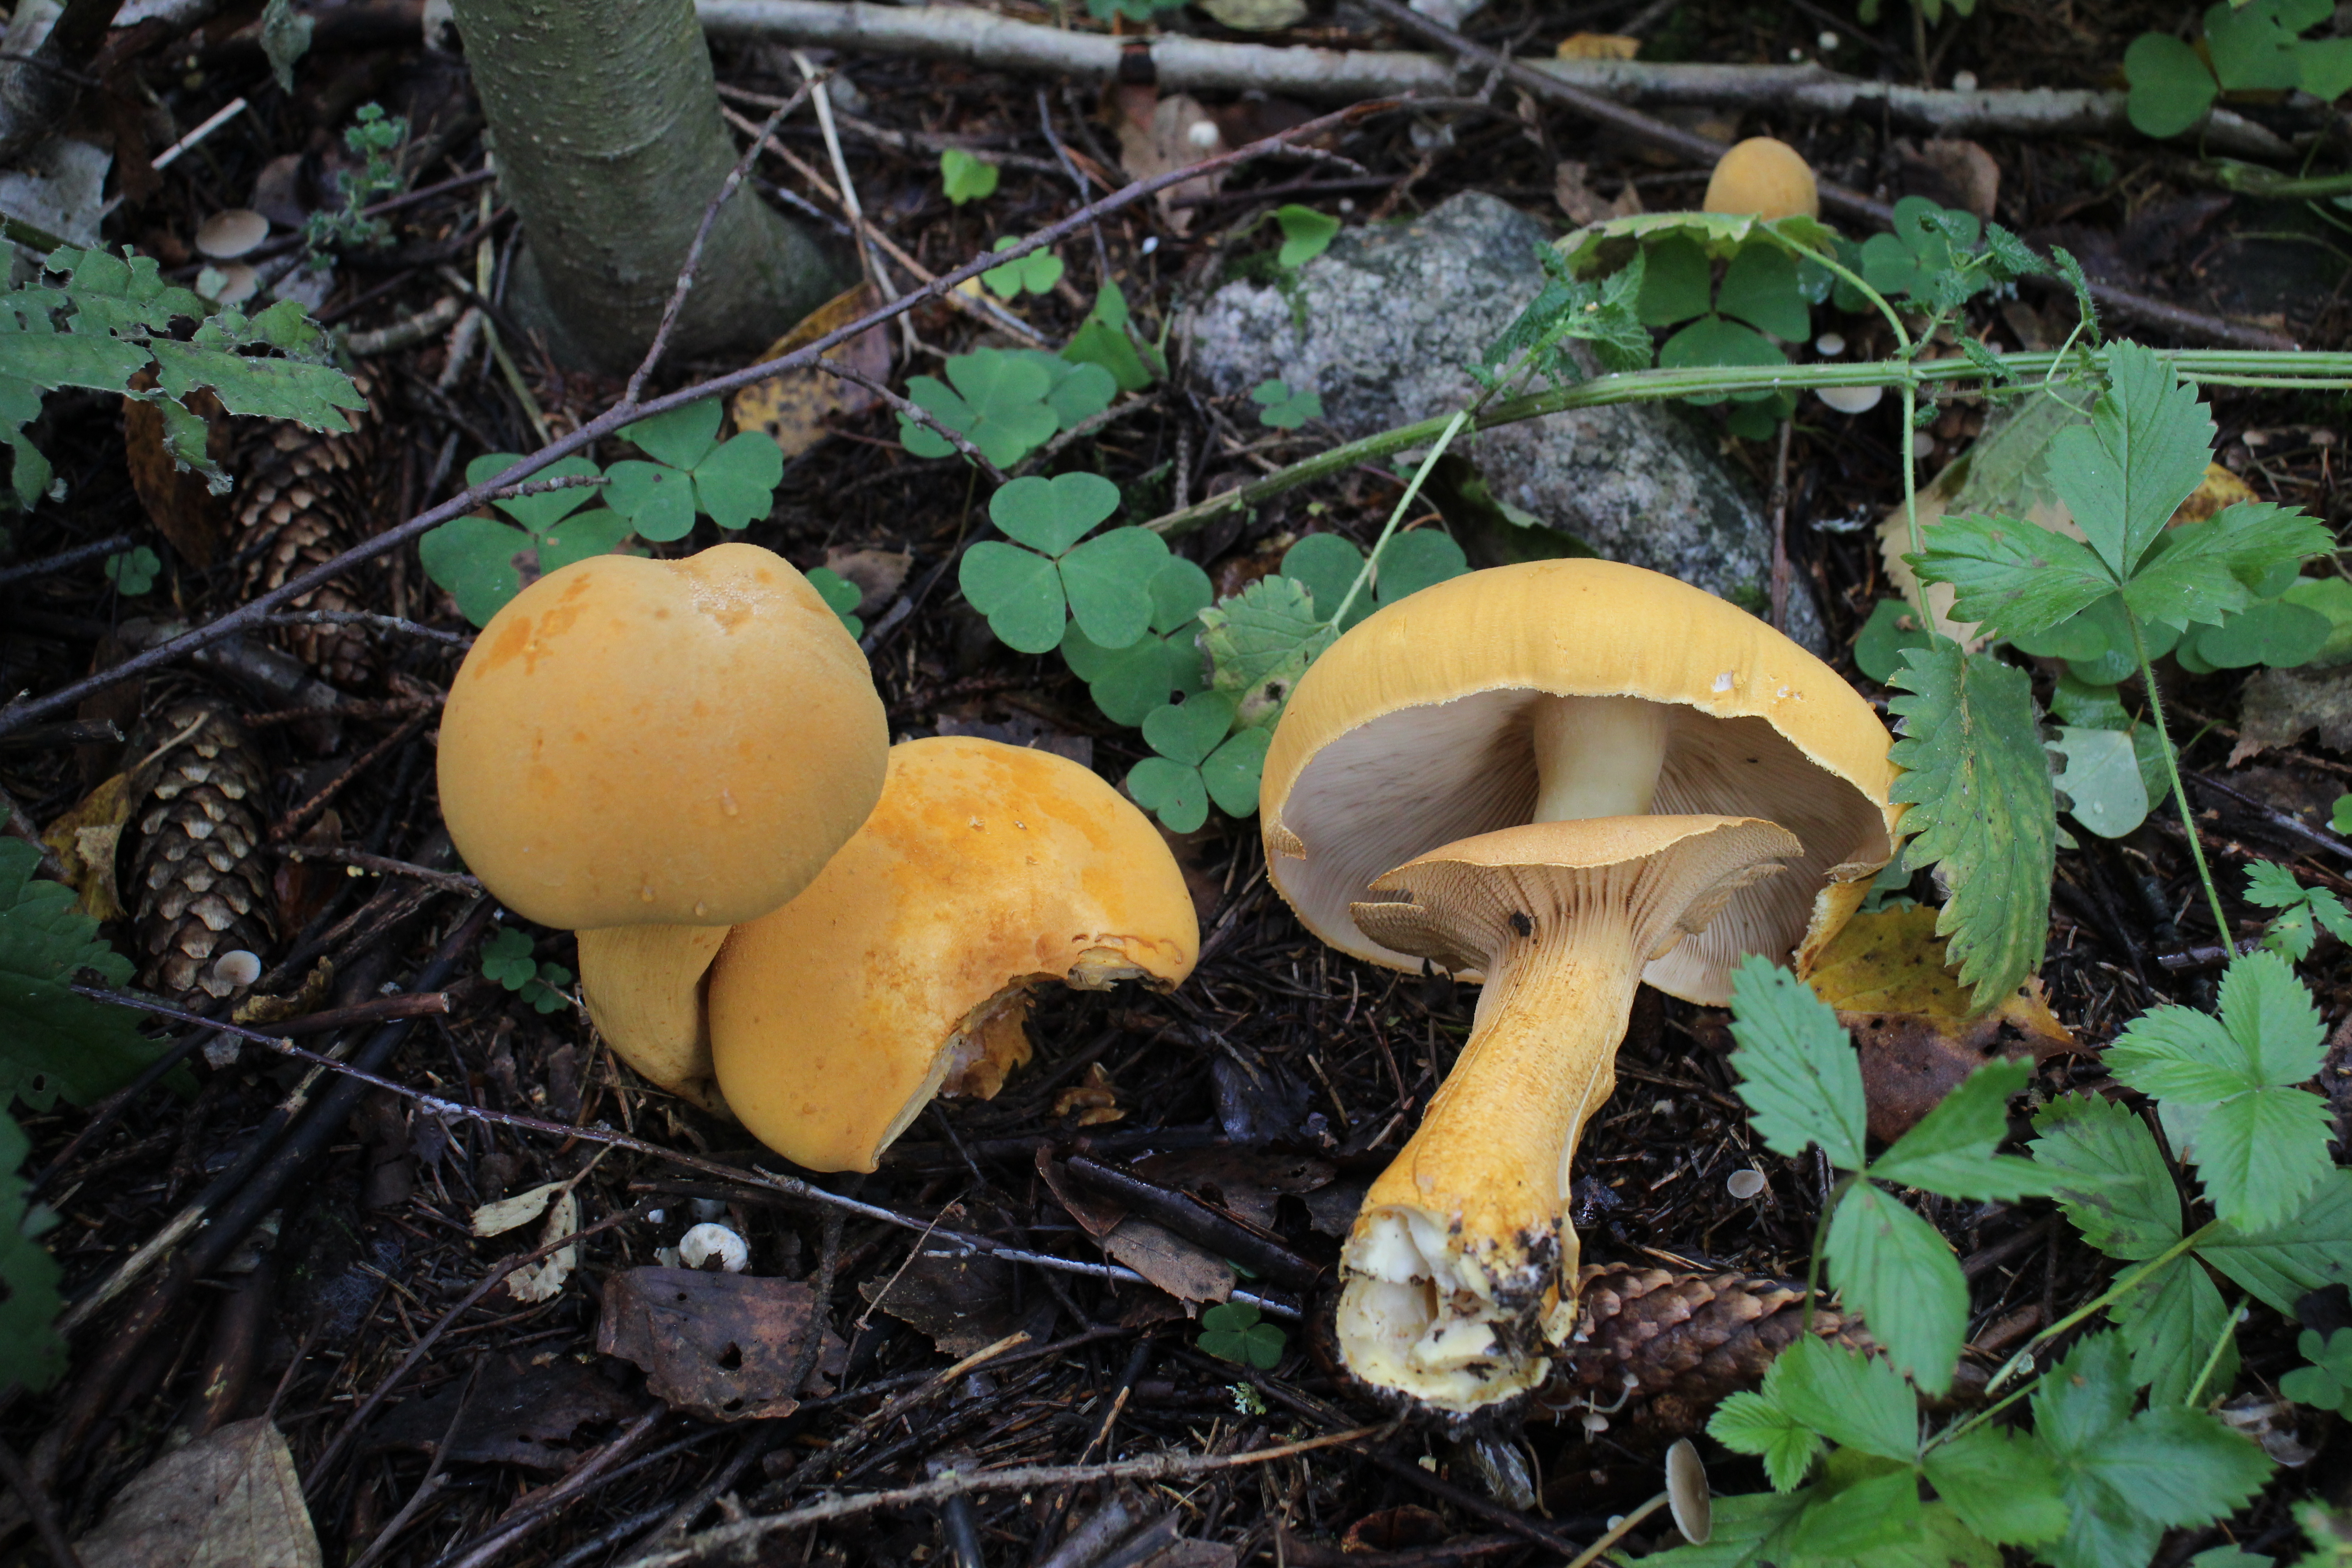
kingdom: Fungi
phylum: Basidiomycota
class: Agaricomycetes
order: Agaricales
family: Tricholomataceae
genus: Phaeolepiota
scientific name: Phaeolepiota aurea
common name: Golden bootleg
